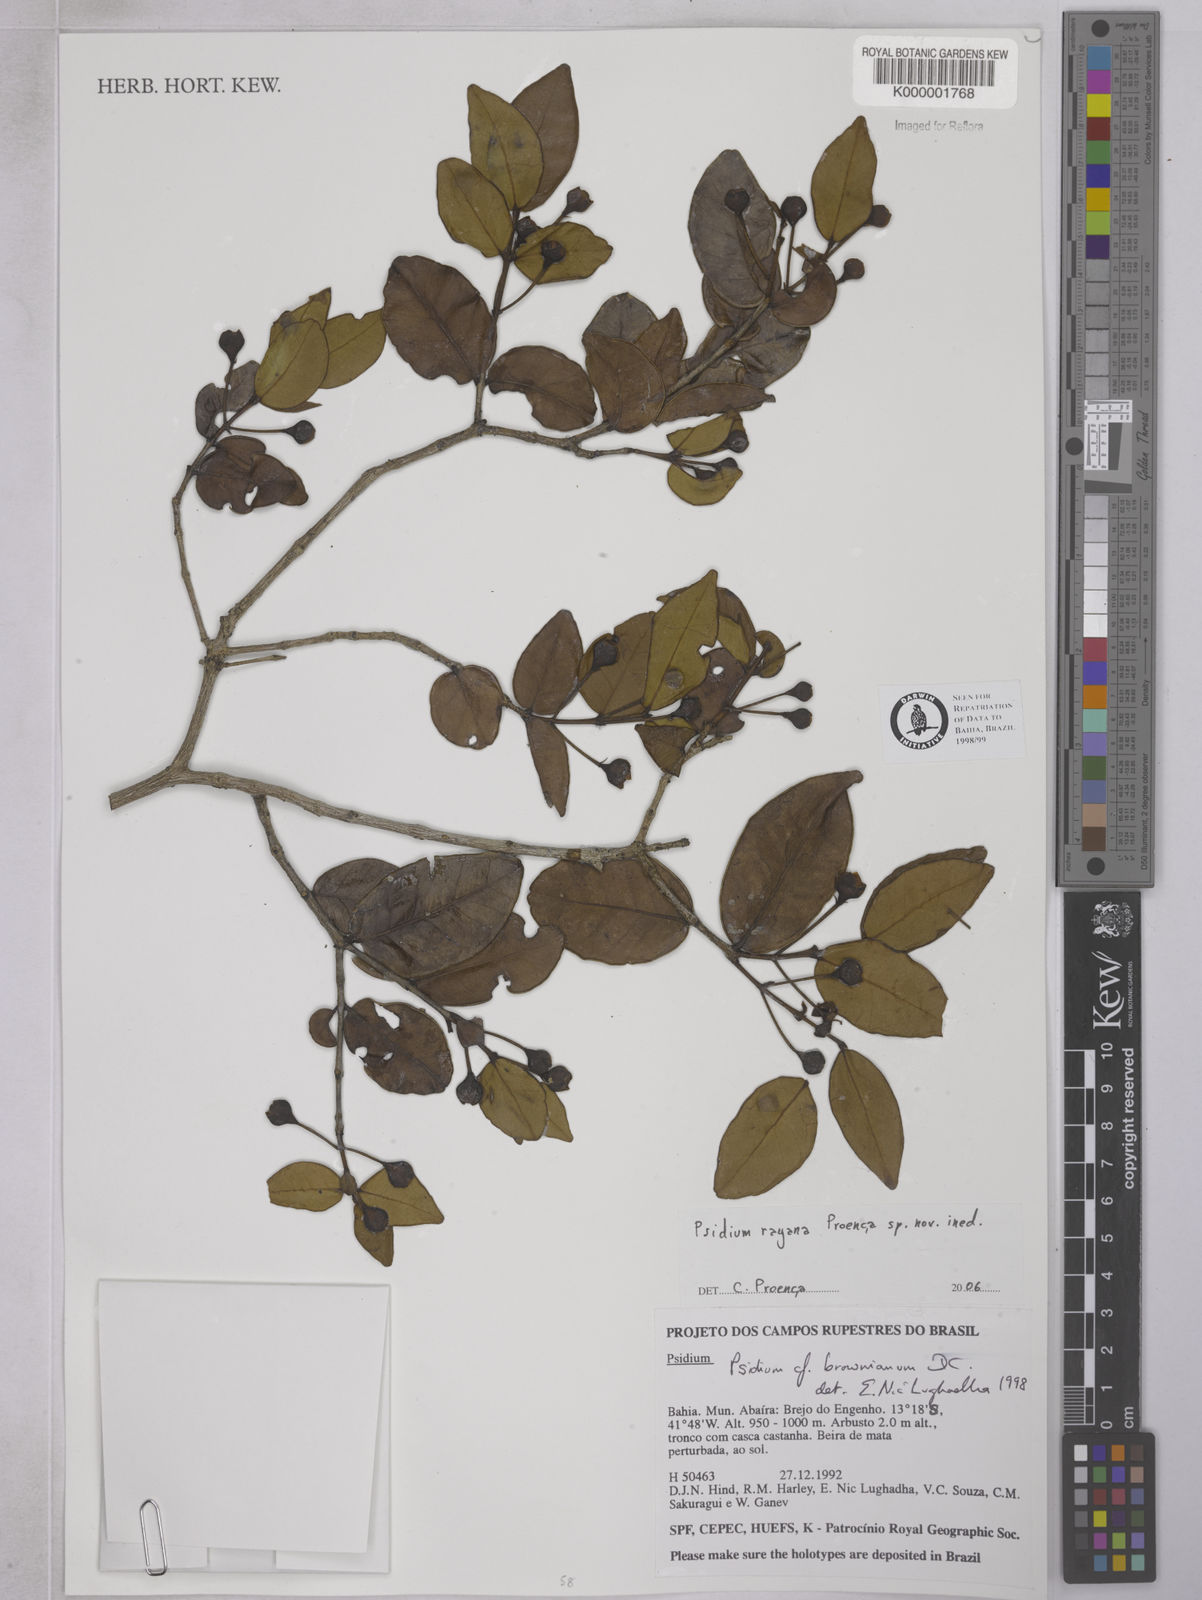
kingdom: Plantae
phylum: Tracheophyta
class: Magnoliopsida
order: Myrtales
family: Myrtaceae
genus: Psidium
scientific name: Psidium brownianum
